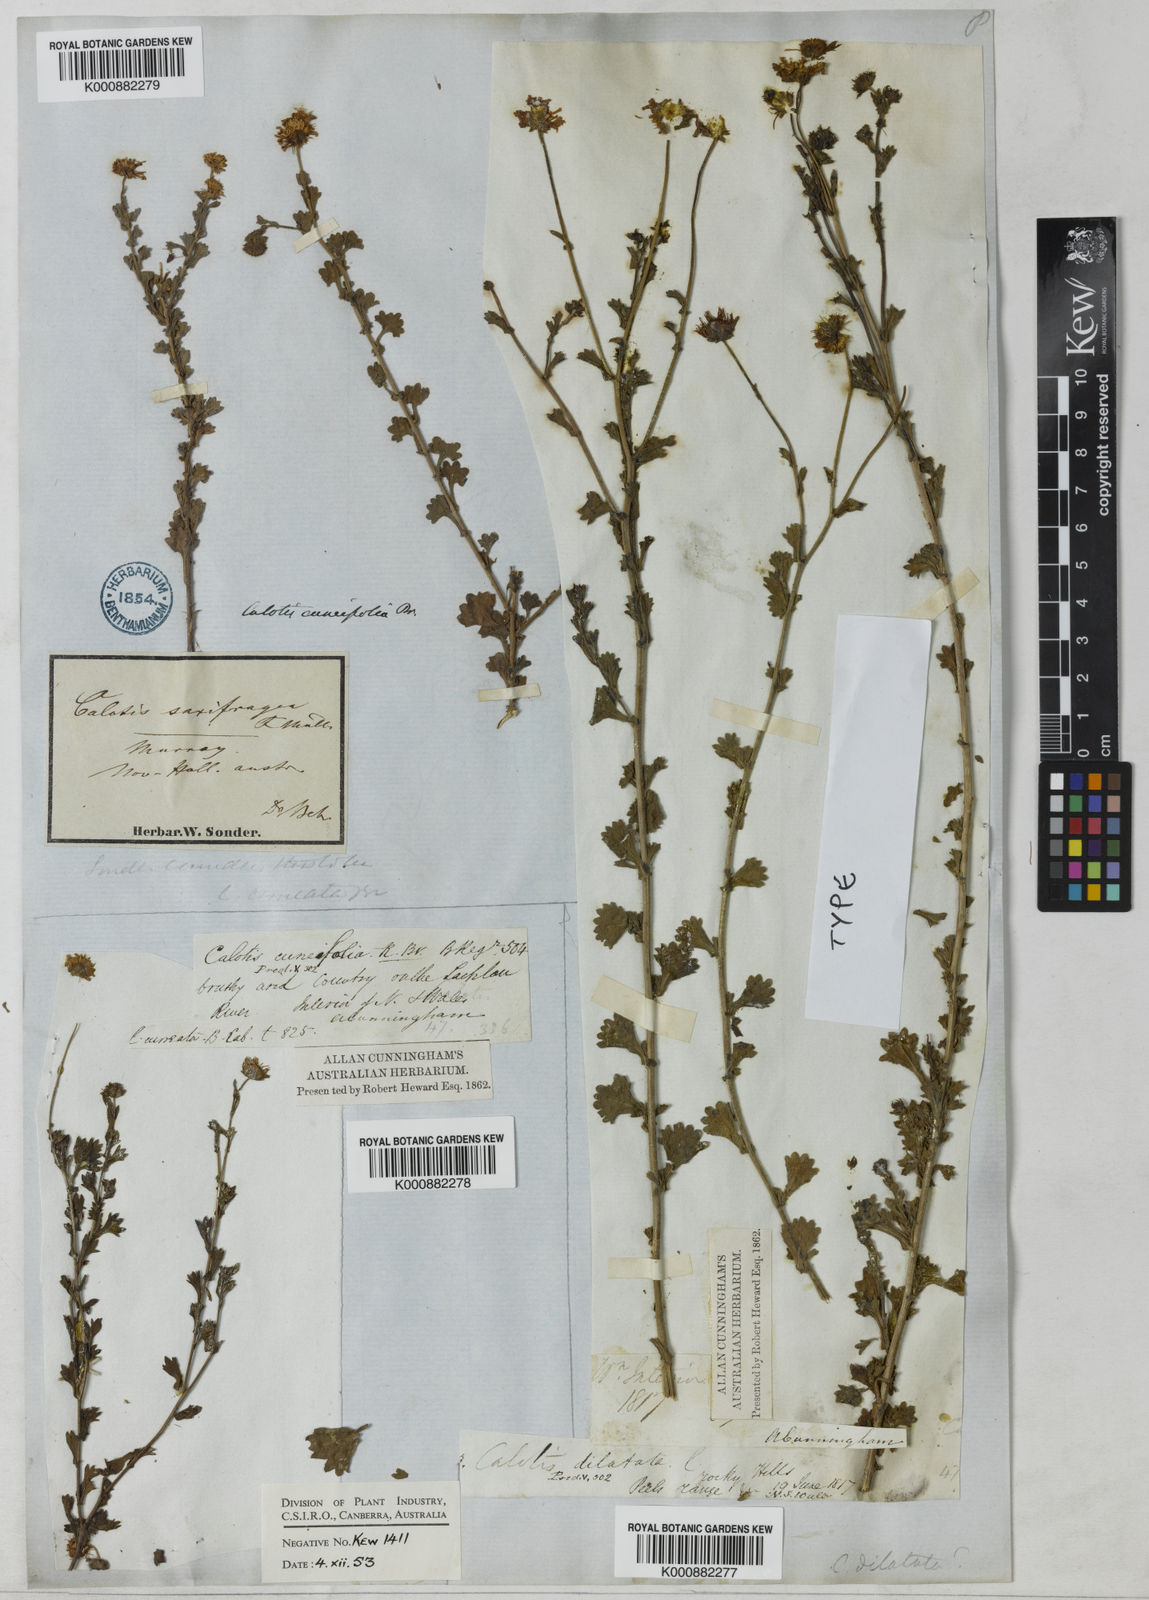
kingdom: Plantae
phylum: Tracheophyta
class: Magnoliopsida
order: Asterales
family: Asteraceae
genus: Calotis
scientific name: Calotis cuneifolia
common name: Bur-daisy
